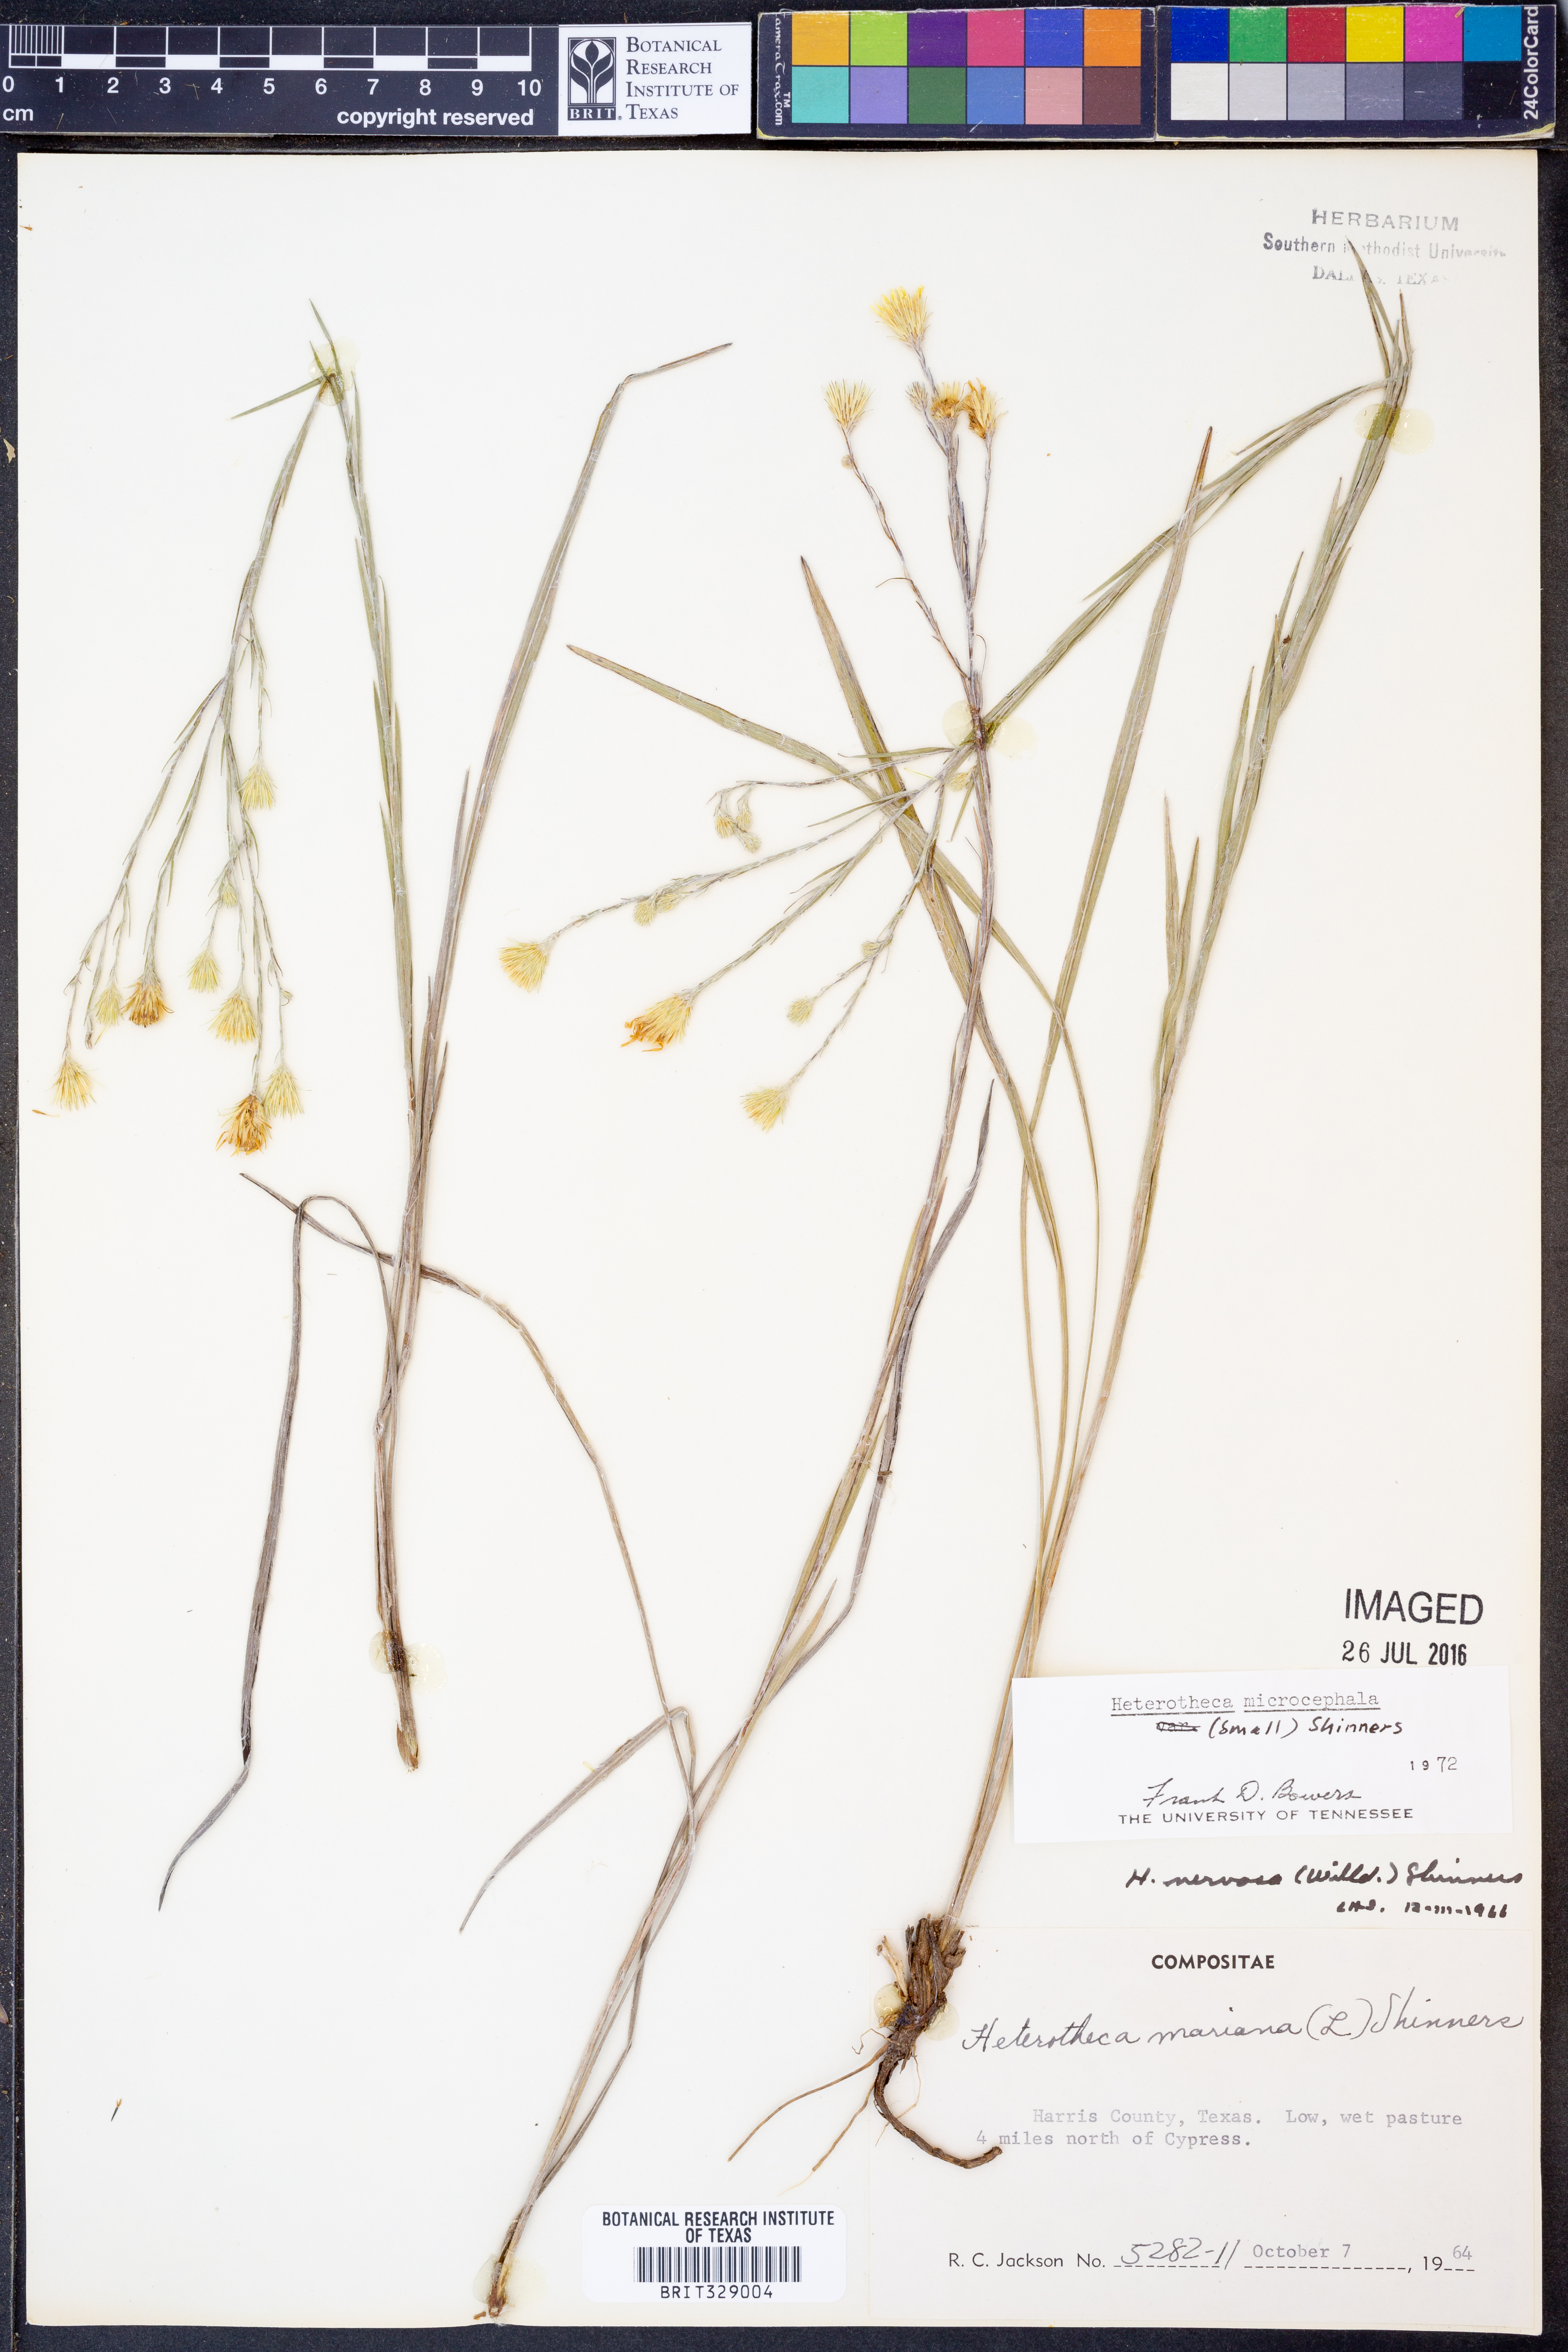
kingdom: Plantae
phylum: Tracheophyta
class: Magnoliopsida
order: Asterales
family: Asteraceae
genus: Pityopsis
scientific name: Pityopsis microcephala
